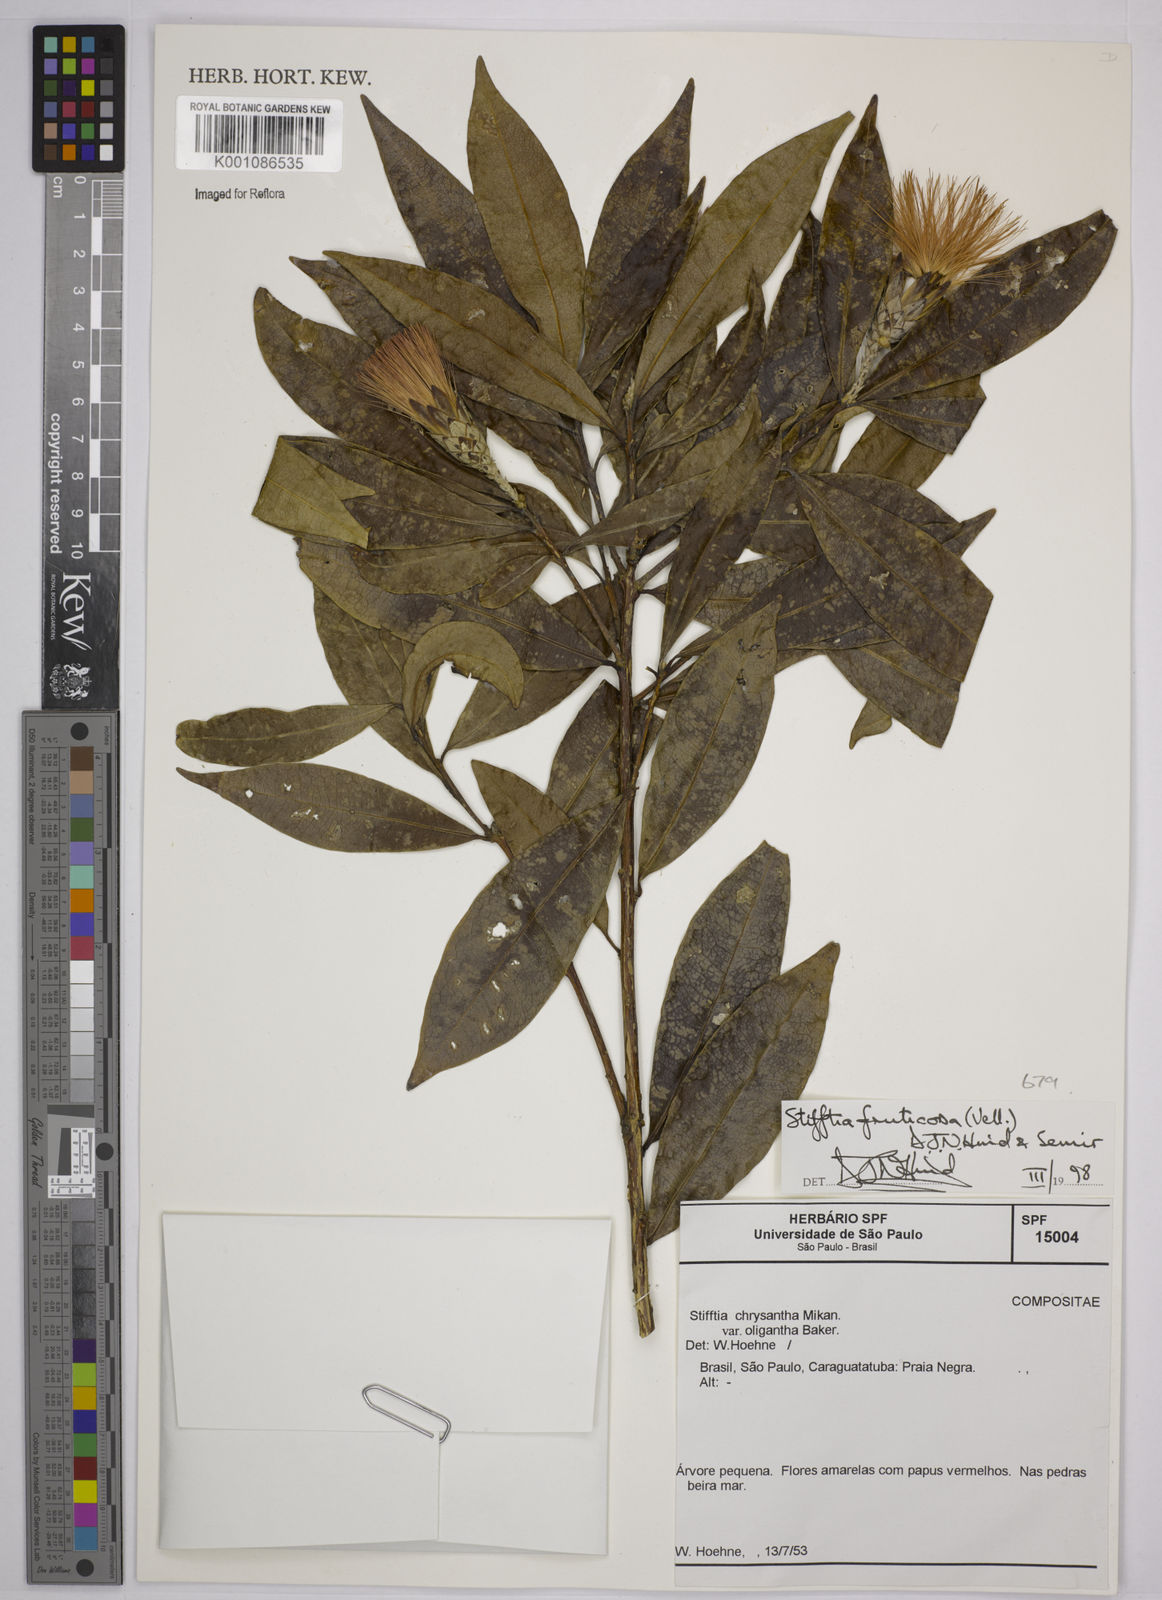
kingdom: Plantae
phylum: Tracheophyta
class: Magnoliopsida
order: Asterales
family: Asteraceae
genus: Stifftia
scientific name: Stifftia fruticosa
